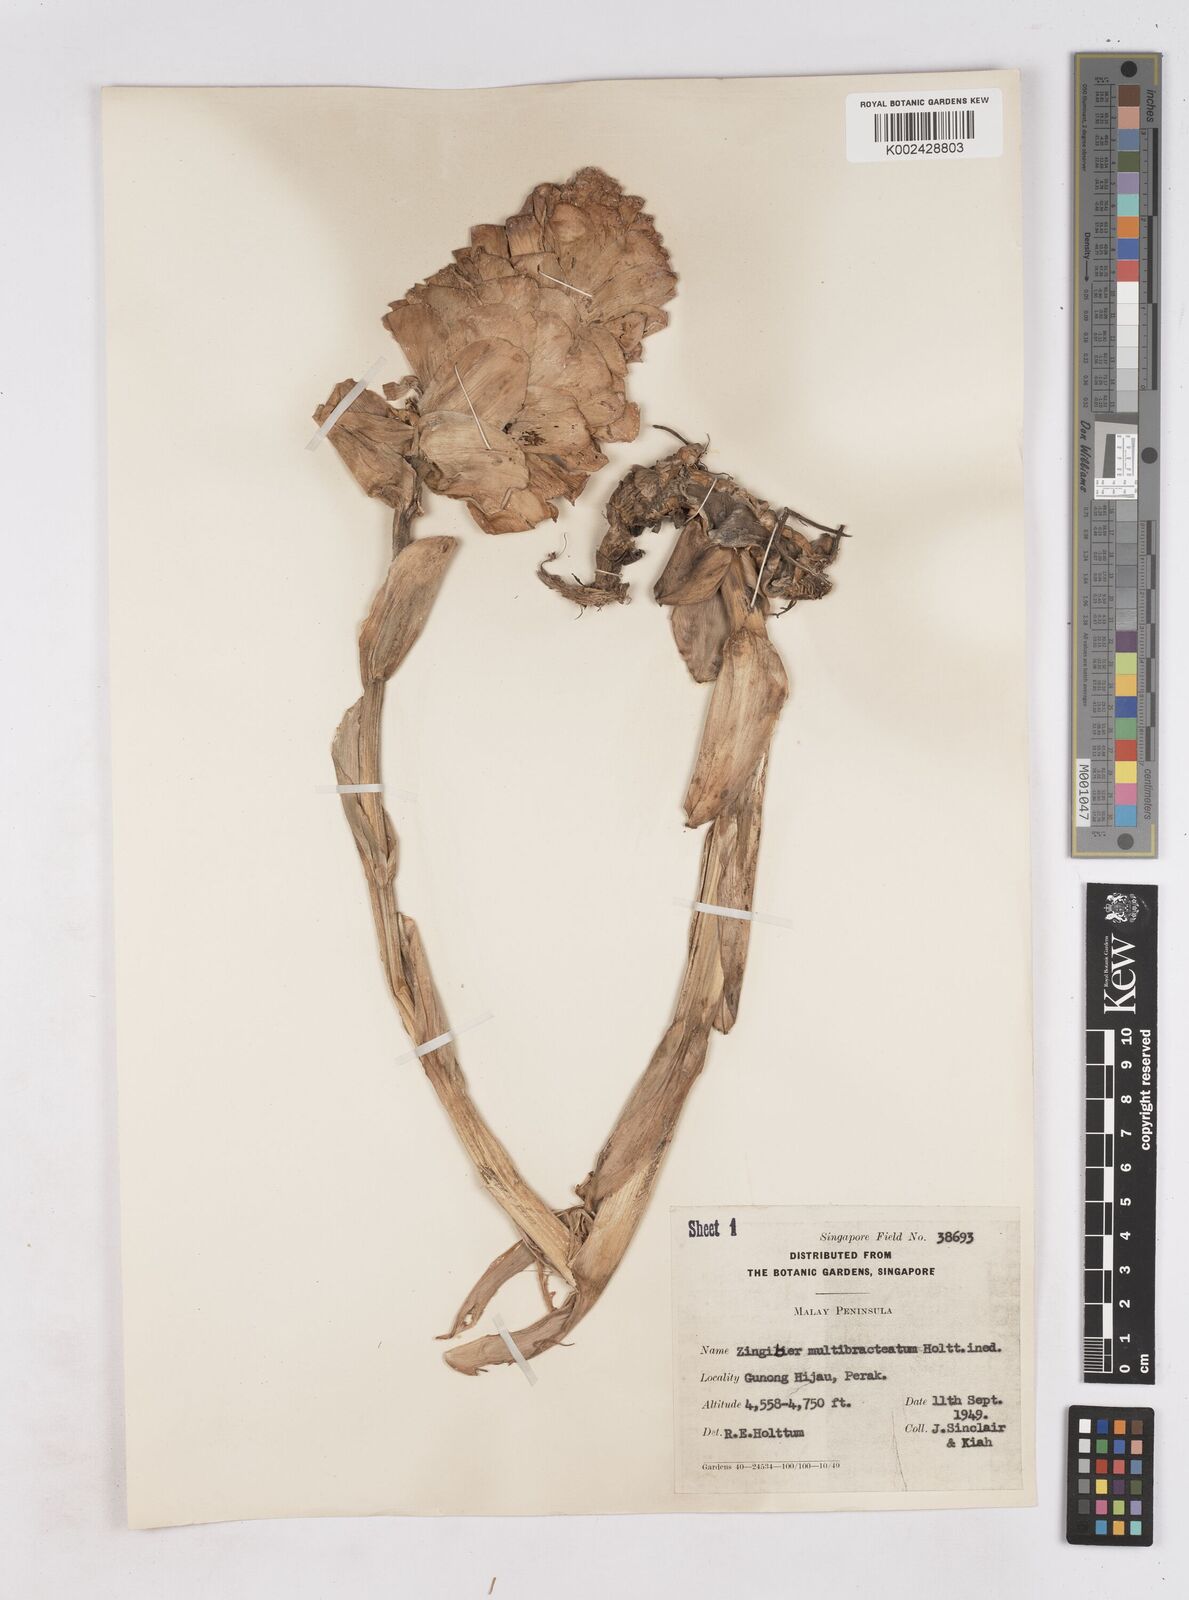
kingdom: Plantae
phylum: Tracheophyta
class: Liliopsida
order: Zingiberales
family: Zingiberaceae
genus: Zingiber
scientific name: Zingiber multibracteatum
